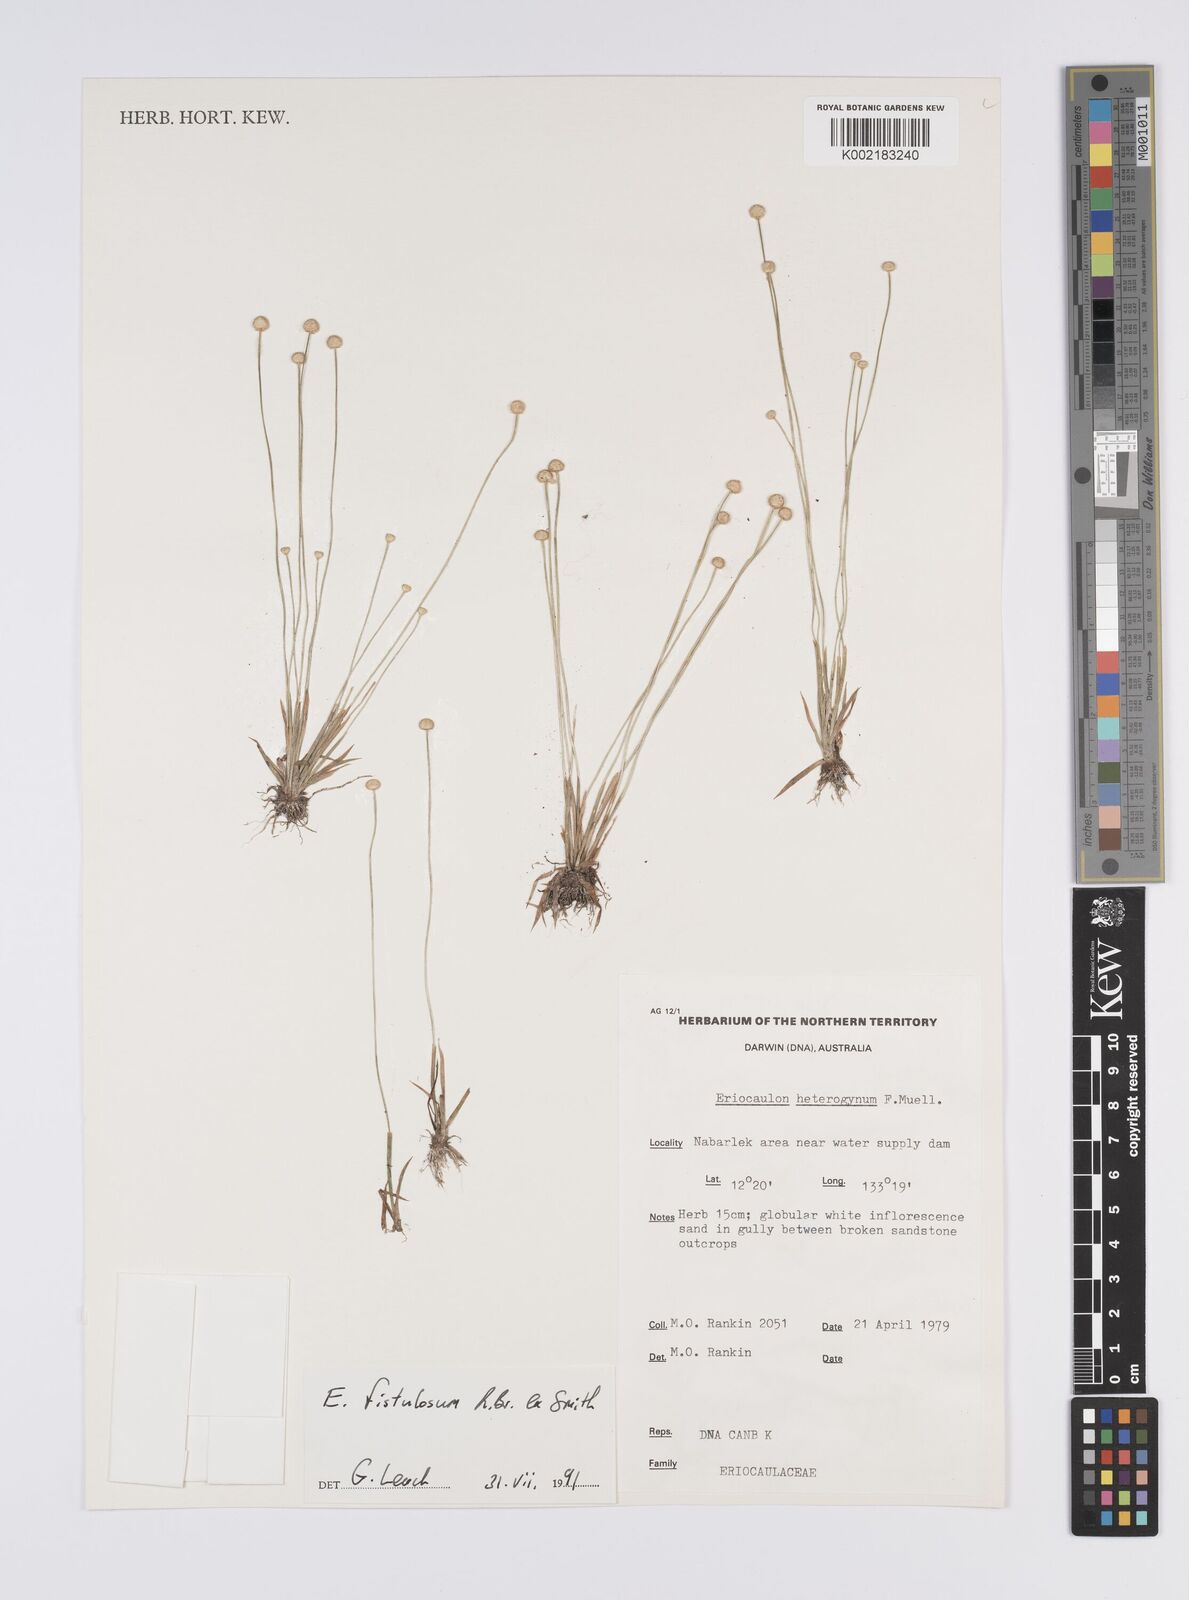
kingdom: Plantae
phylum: Tracheophyta
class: Liliopsida
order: Poales
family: Eriocaulaceae
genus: Eriocaulon
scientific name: Eriocaulon fistulosum
